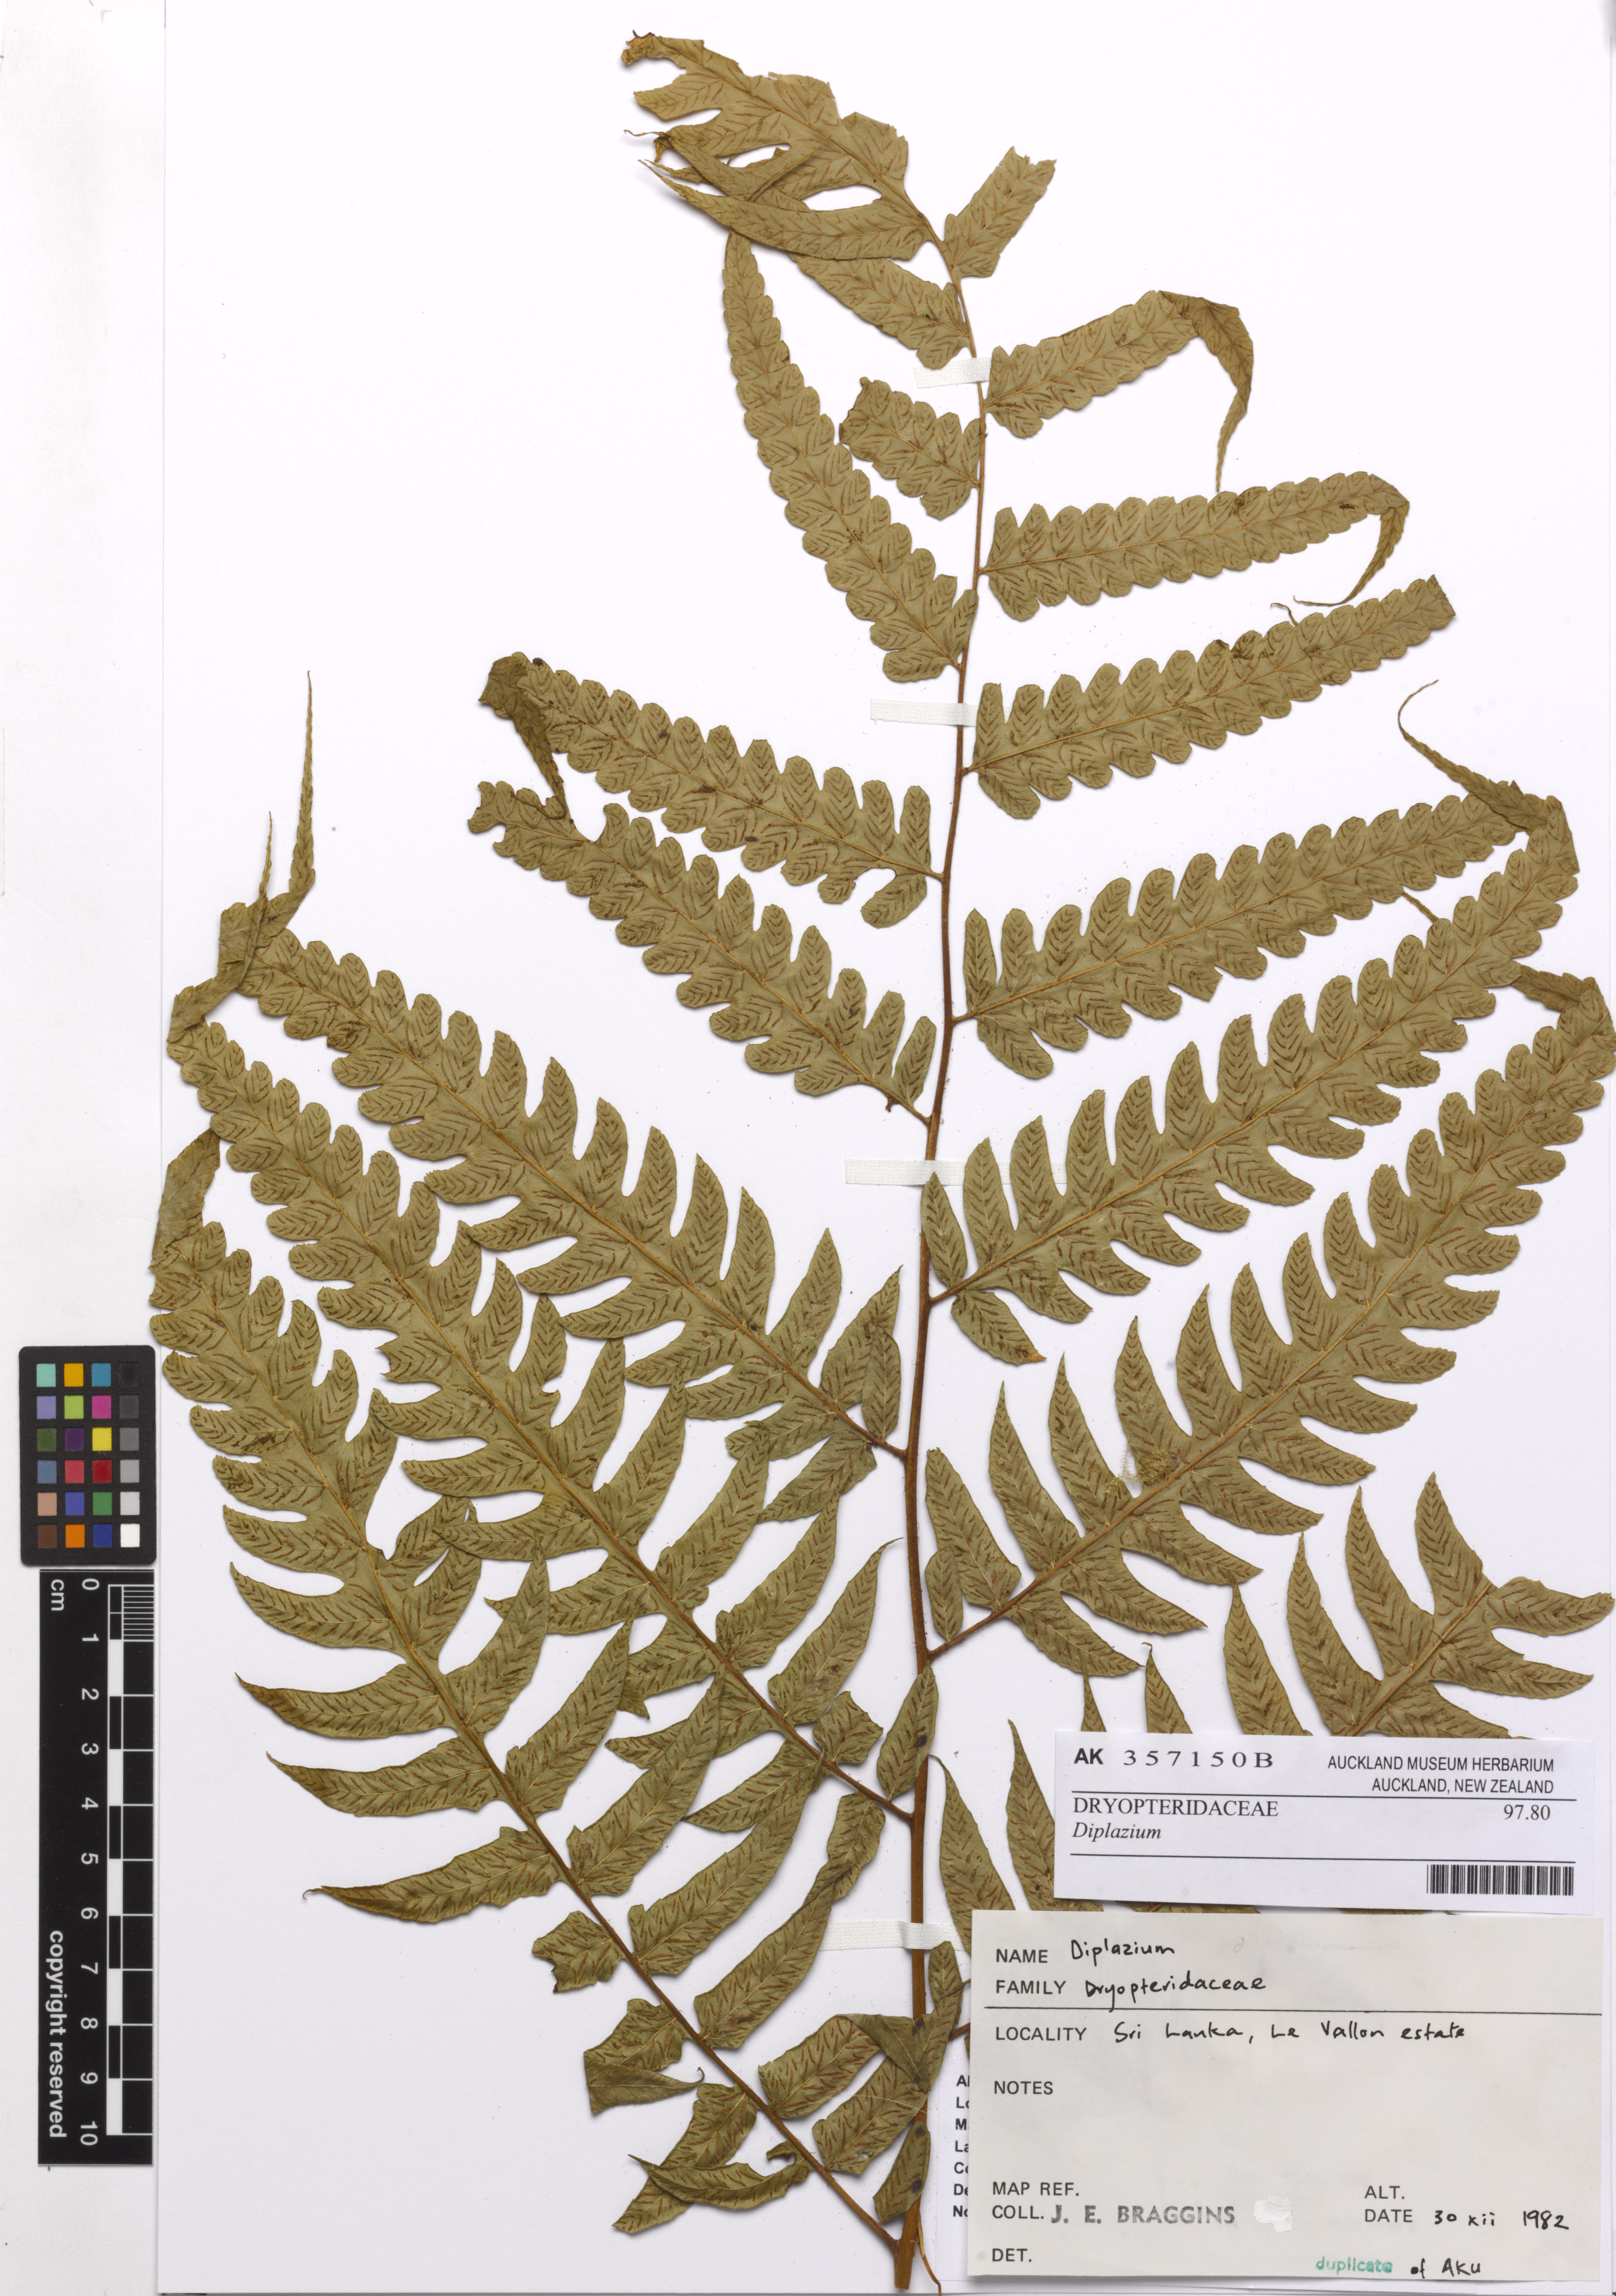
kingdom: Plantae
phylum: Tracheophyta
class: Polypodiopsida
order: Polypodiales
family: Athyriaceae
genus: Diplazium
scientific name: Diplazium
